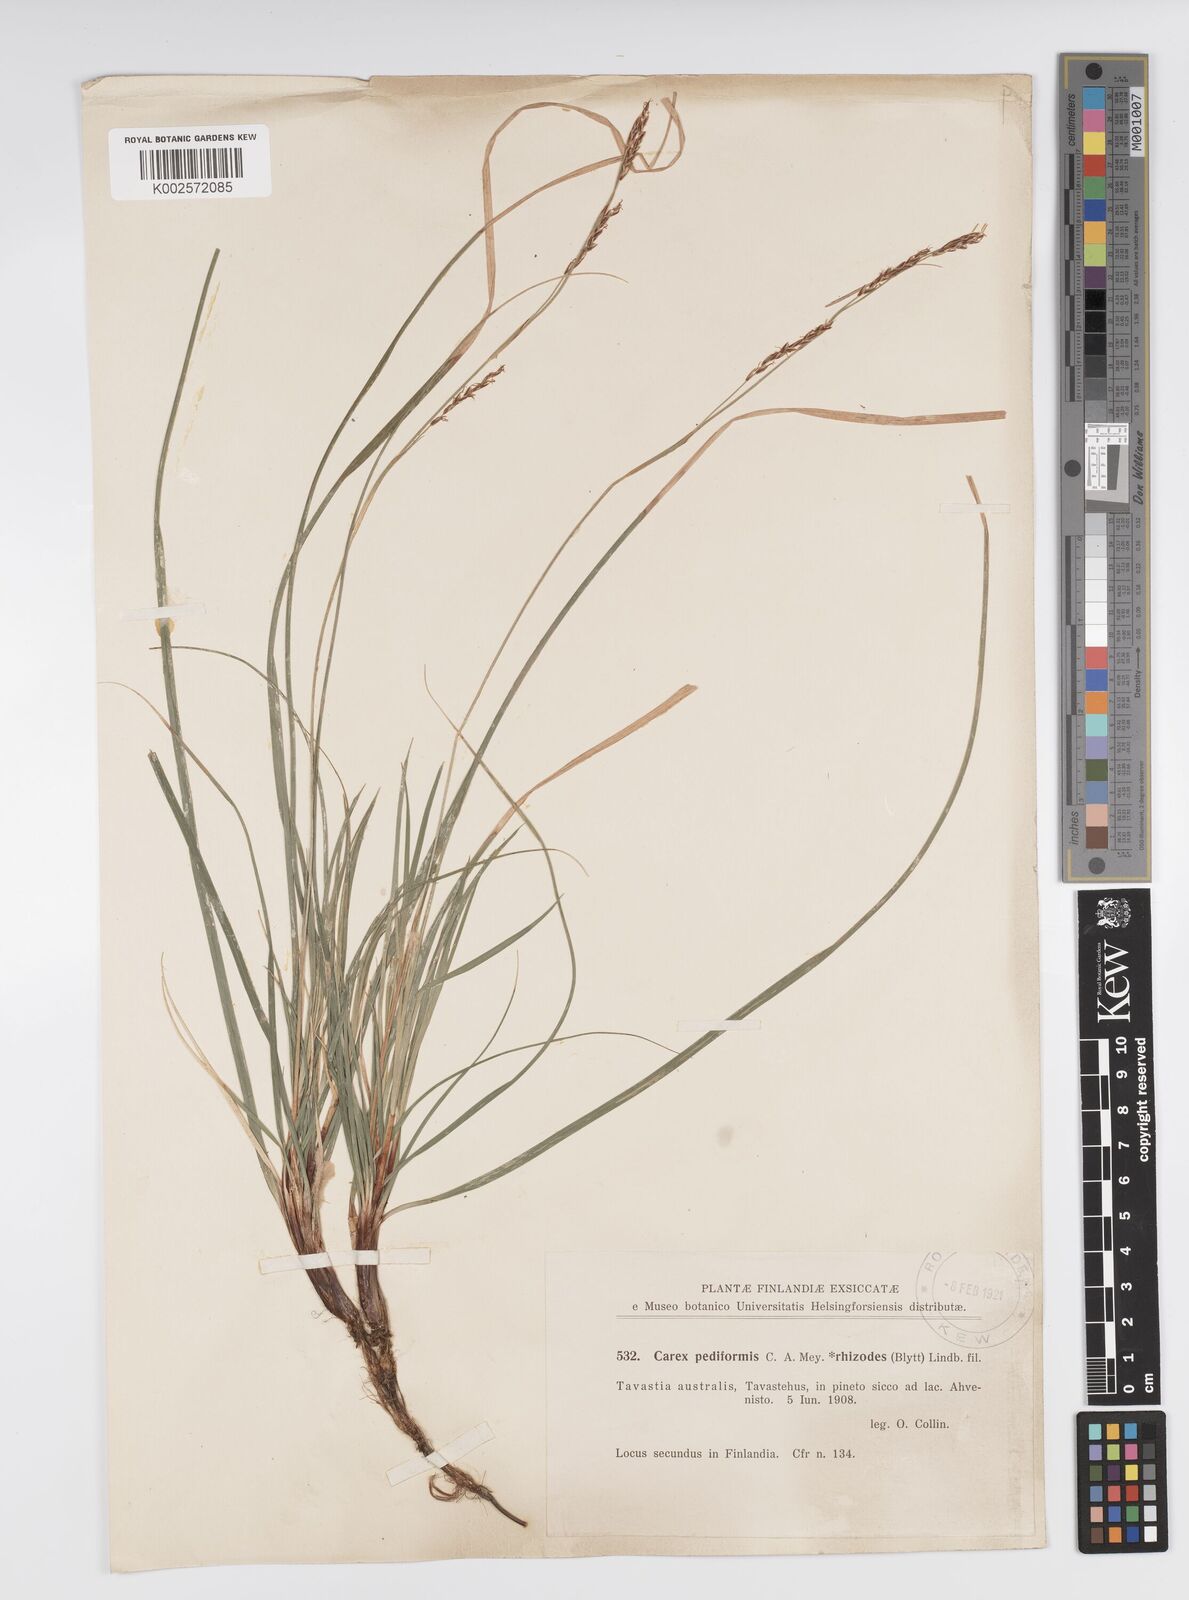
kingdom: Plantae
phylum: Tracheophyta
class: Liliopsida
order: Poales
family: Cyperaceae
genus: Carex
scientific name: Carex pediformis
